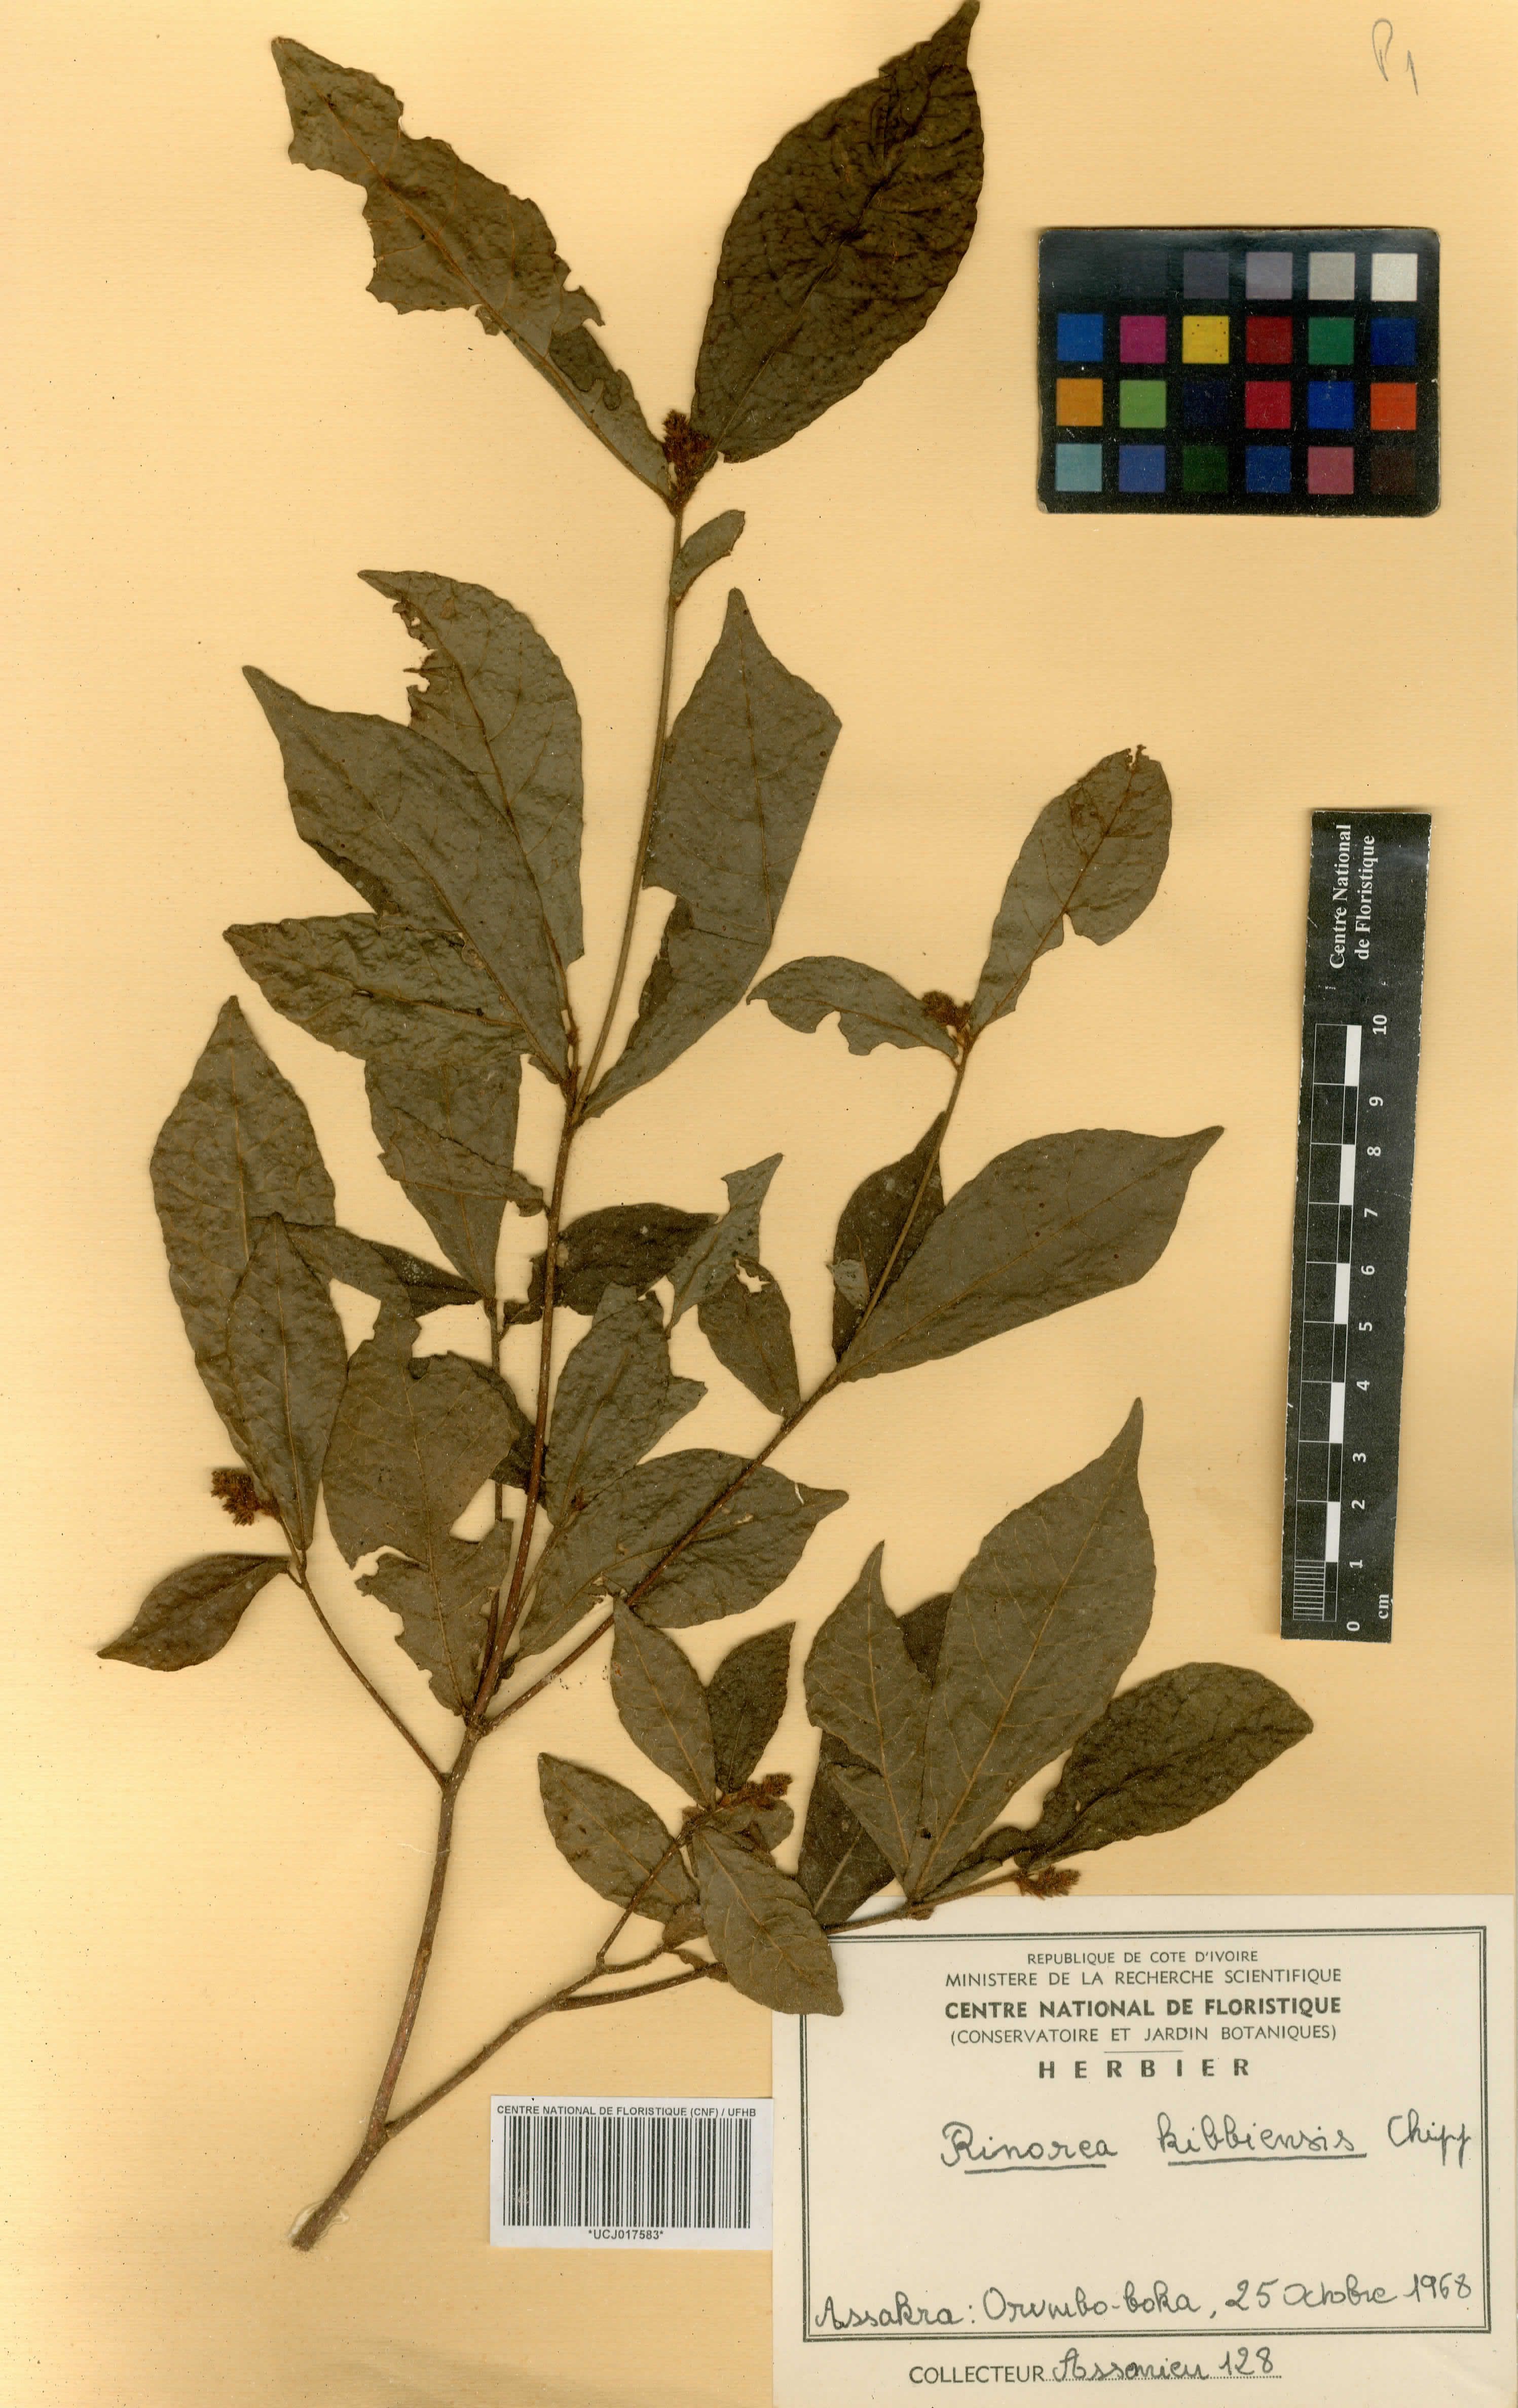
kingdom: Plantae
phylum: Tracheophyta
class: Magnoliopsida
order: Malpighiales
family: Violaceae
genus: Rinorea
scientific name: Rinorea kibbiensis
